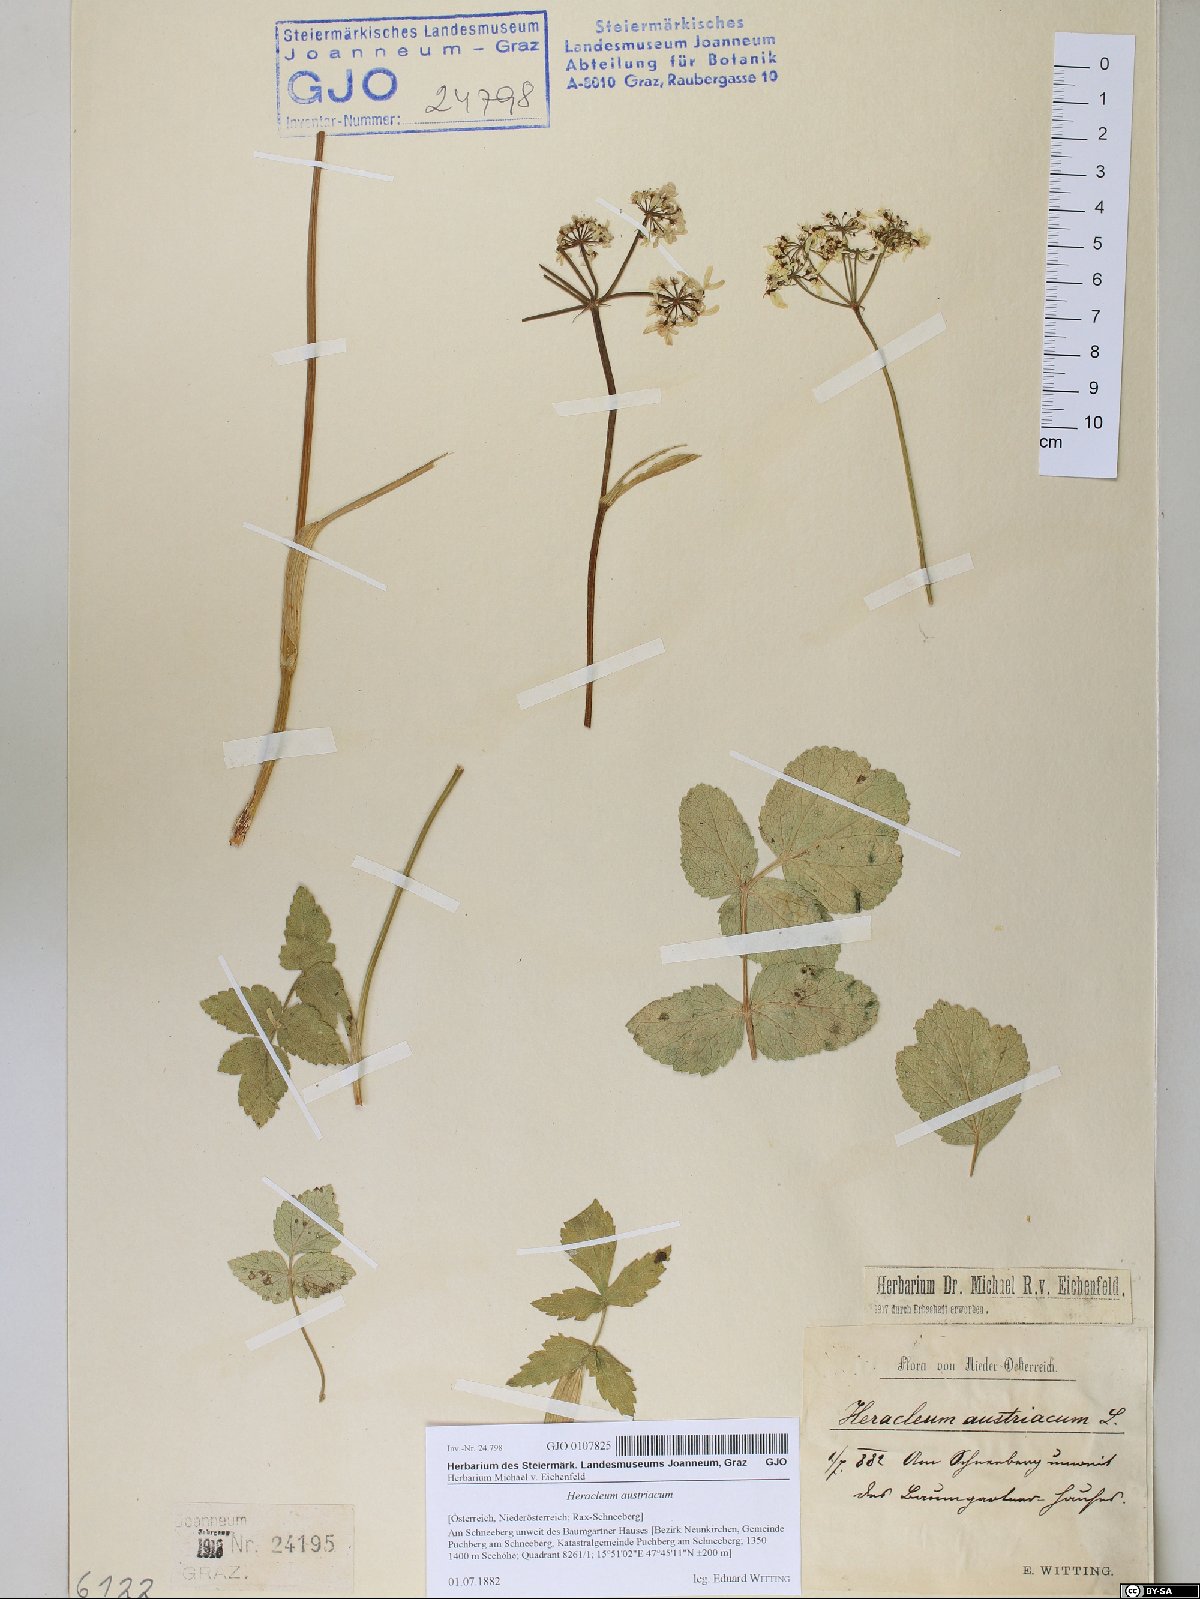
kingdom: Plantae
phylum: Tracheophyta
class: Magnoliopsida
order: Apiales
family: Apiaceae
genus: Heracleum
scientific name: Heracleum austriacum
